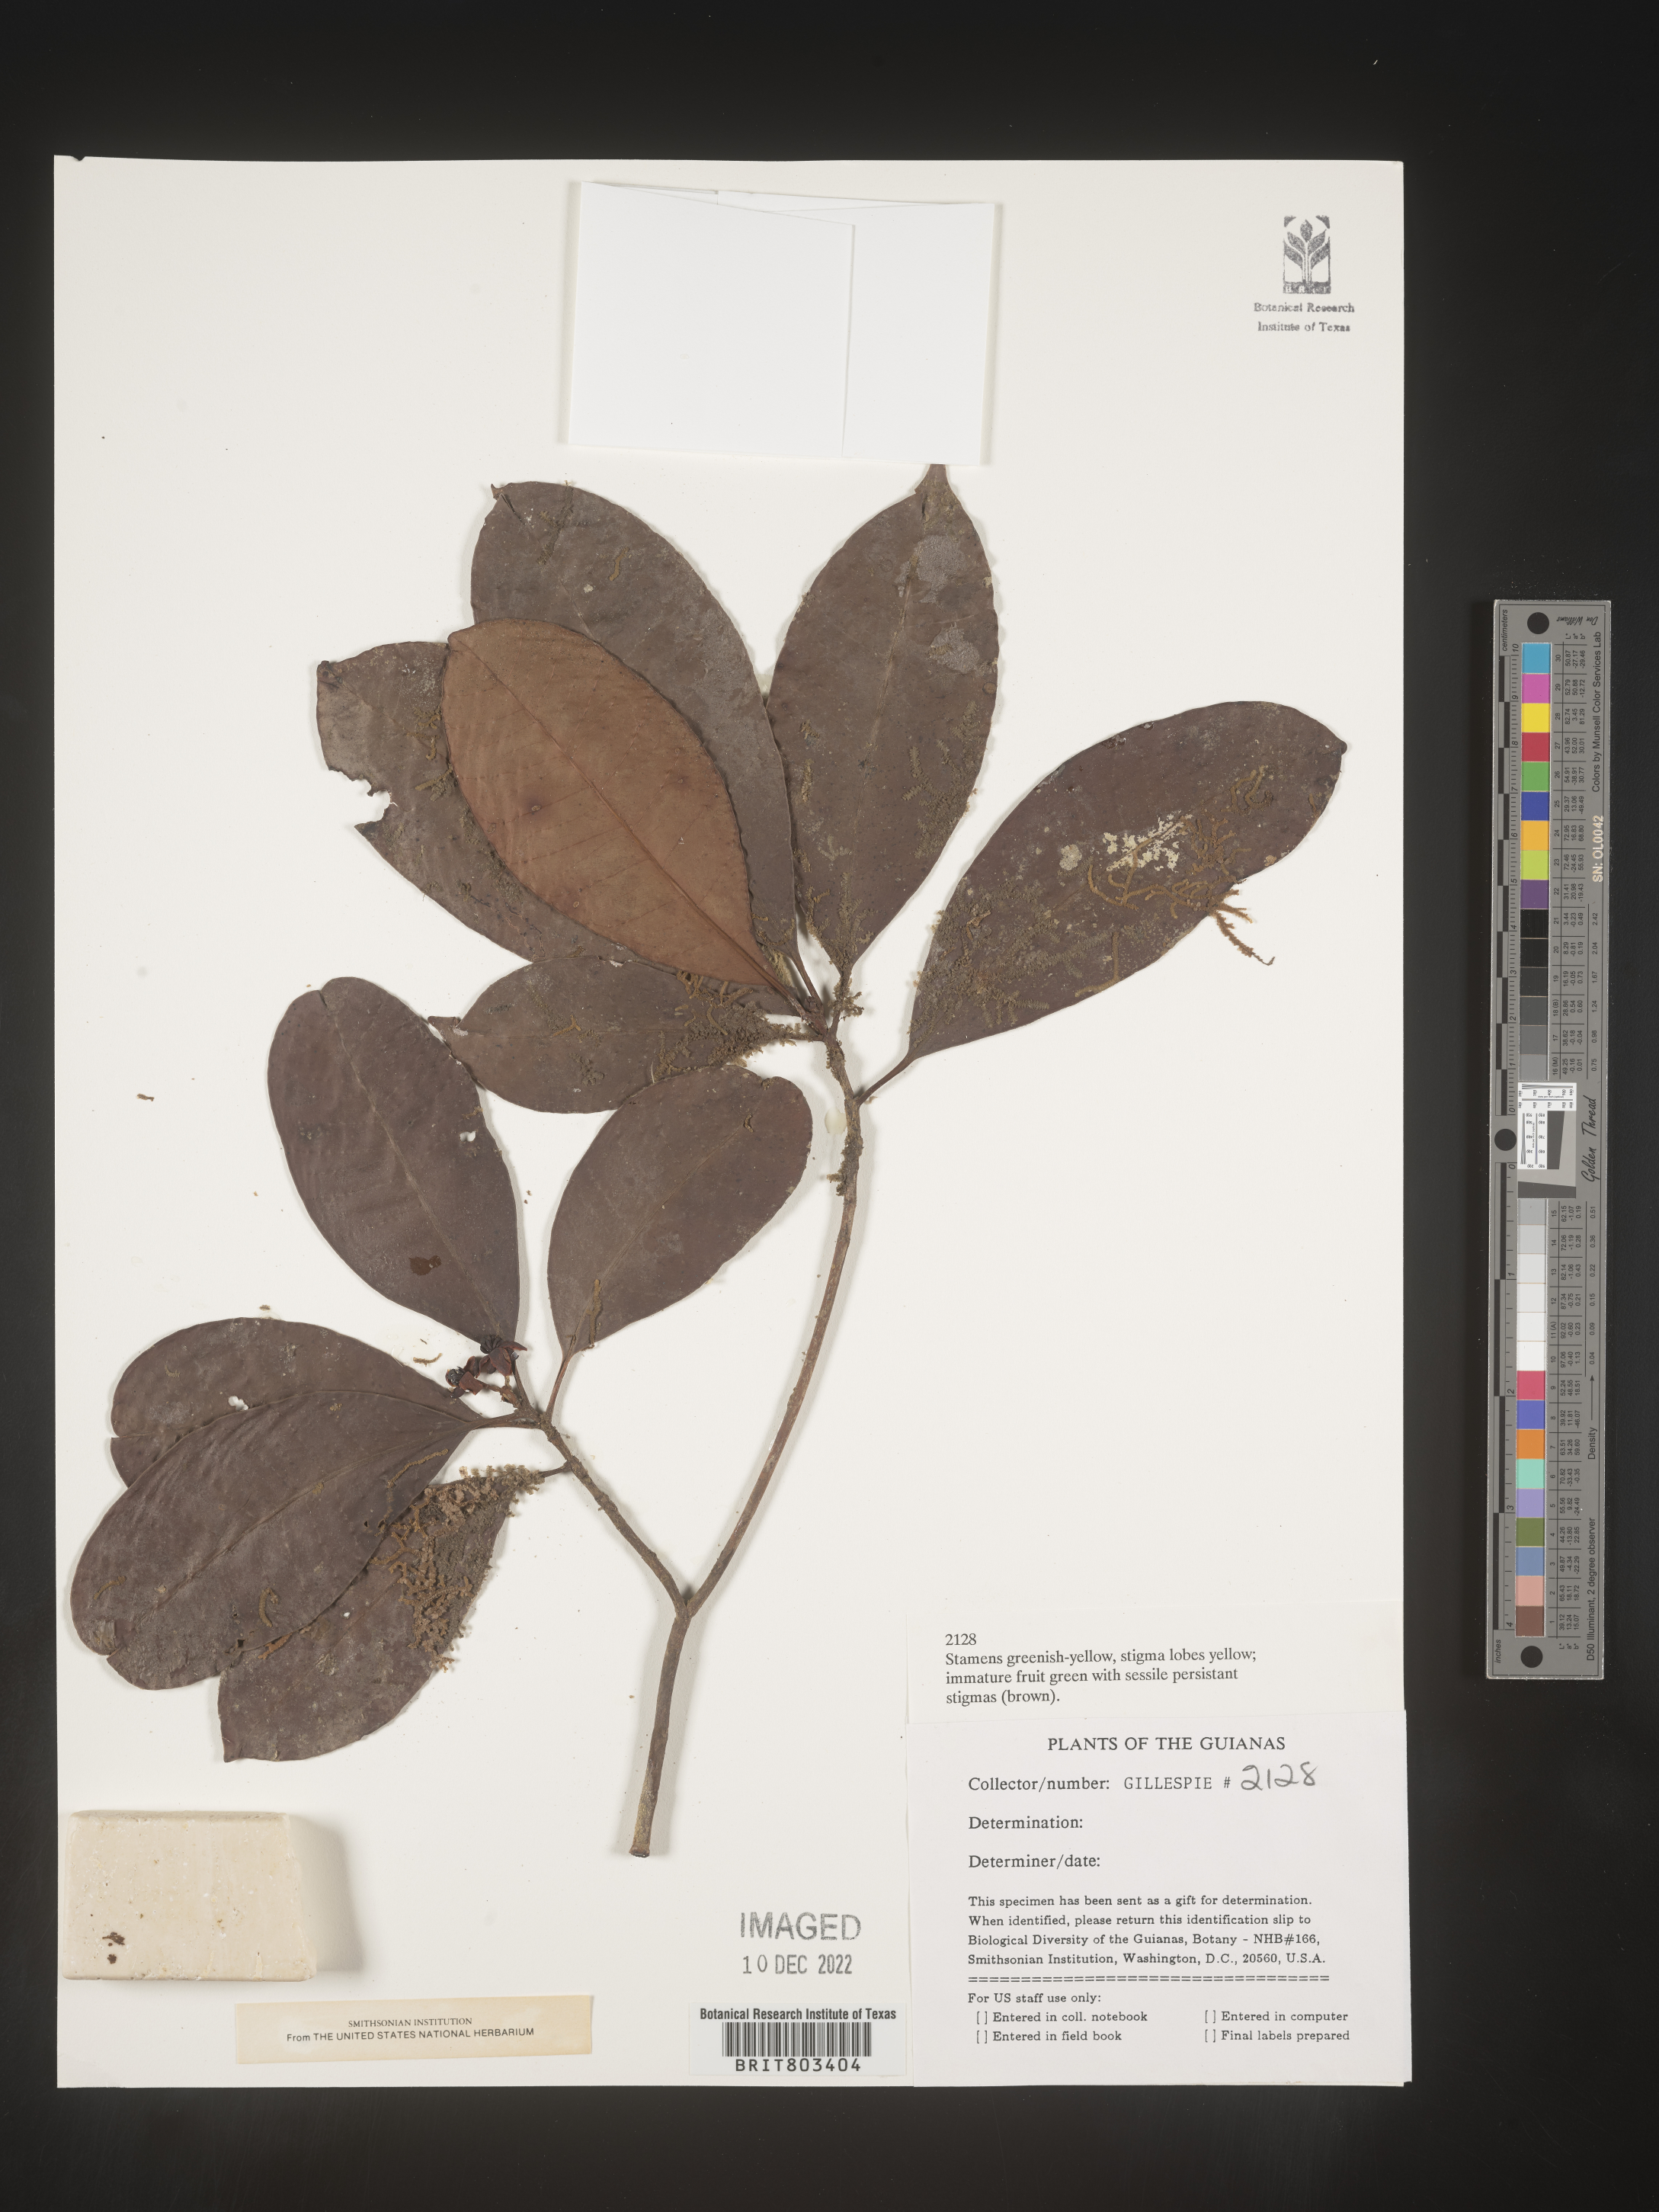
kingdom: Plantae
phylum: Tracheophyta
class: Magnoliopsida
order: Malpighiales
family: Clusiaceae
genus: Tovomita
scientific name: Tovomita
